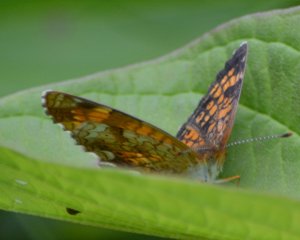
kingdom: Animalia
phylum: Arthropoda
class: Insecta
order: Lepidoptera
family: Nymphalidae
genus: Phyciodes
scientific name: Phyciodes tharos
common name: Northern Crescent
